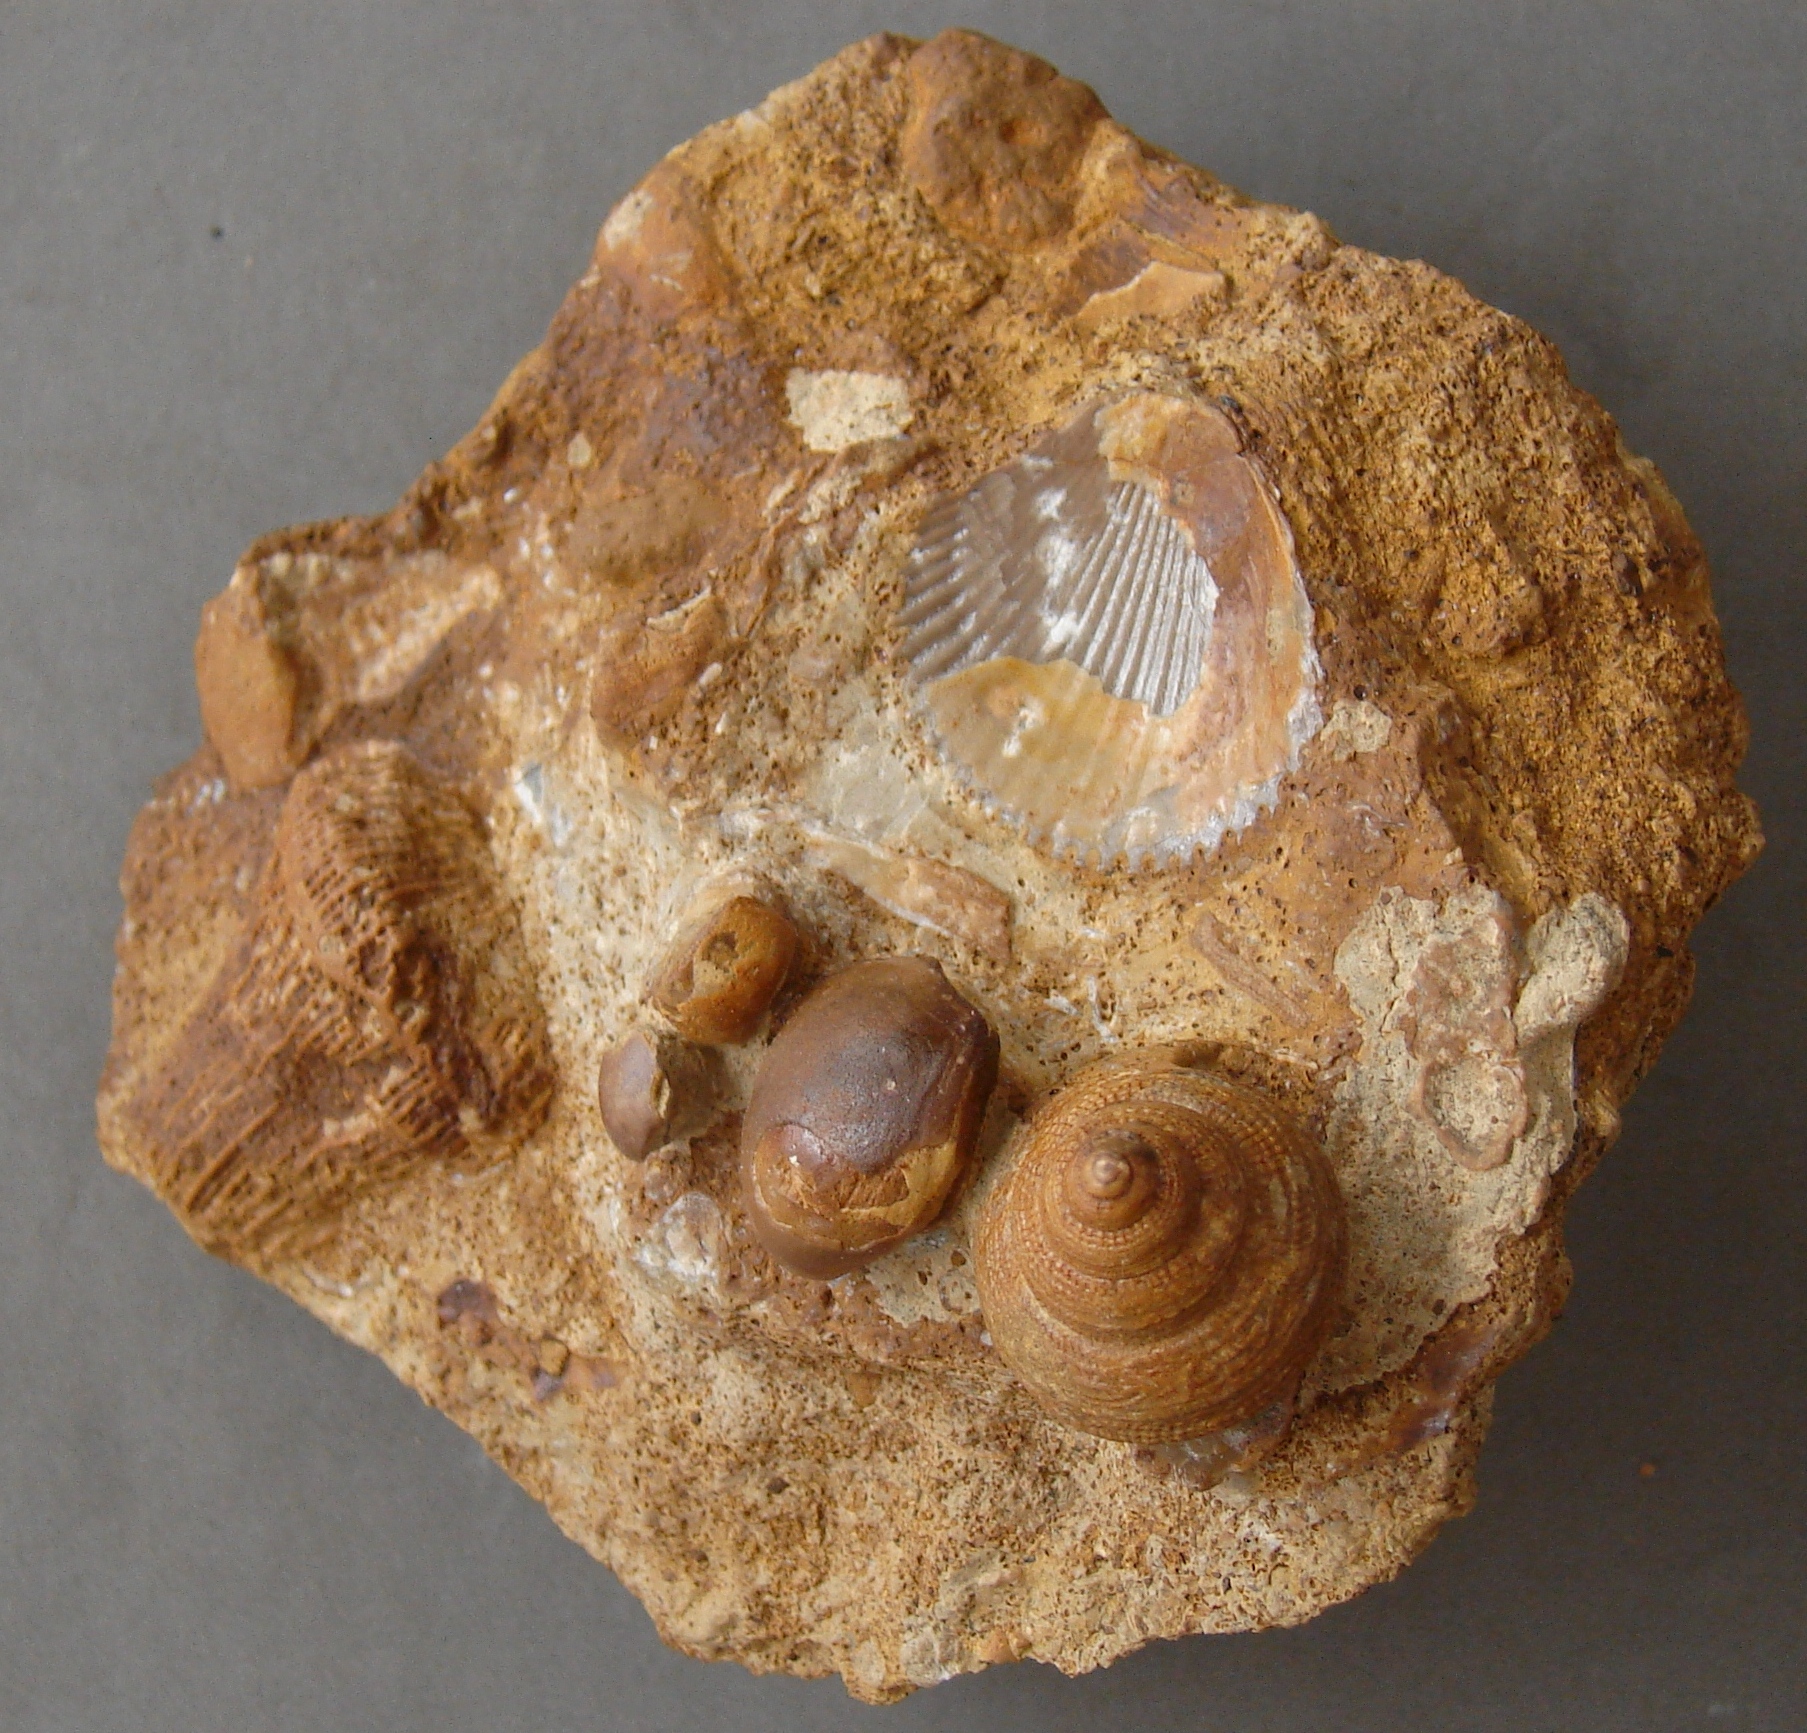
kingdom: Animalia
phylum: Mollusca
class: Gastropoda
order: Pleurotomariida
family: Pleurotomariidae
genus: Bathrotomaria
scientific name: Bathrotomaria Pleurotomaria subreticulata
